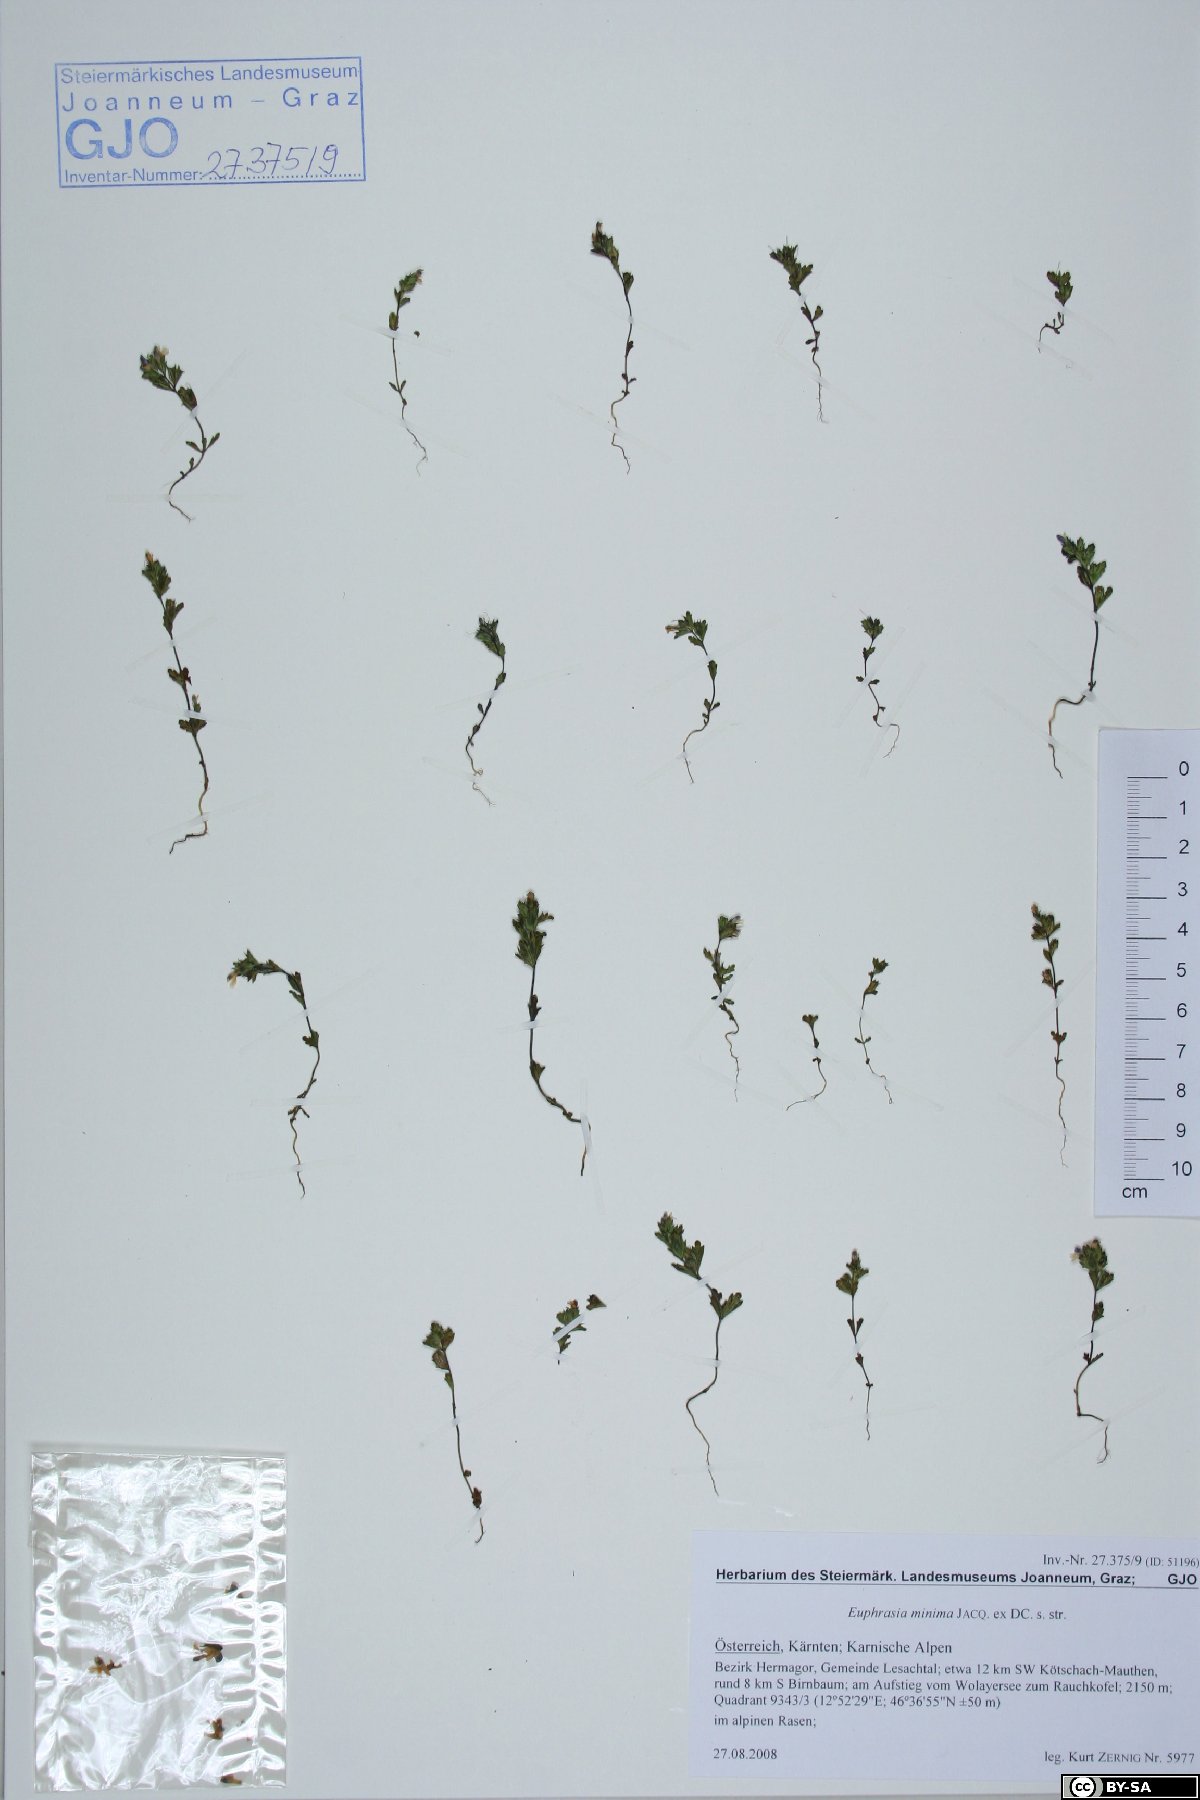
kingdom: Plantae
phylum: Tracheophyta
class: Magnoliopsida
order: Lamiales
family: Orobanchaceae
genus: Euphrasia
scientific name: Euphrasia minima
